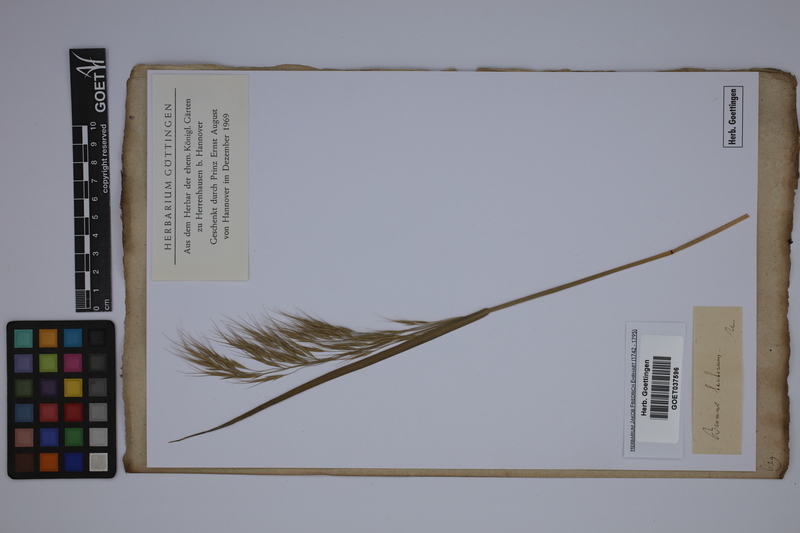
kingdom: Plantae
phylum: Tracheophyta
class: Liliopsida
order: Poales
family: Poaceae
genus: Bromus
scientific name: Bromus tectorum
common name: Cheatgrass
